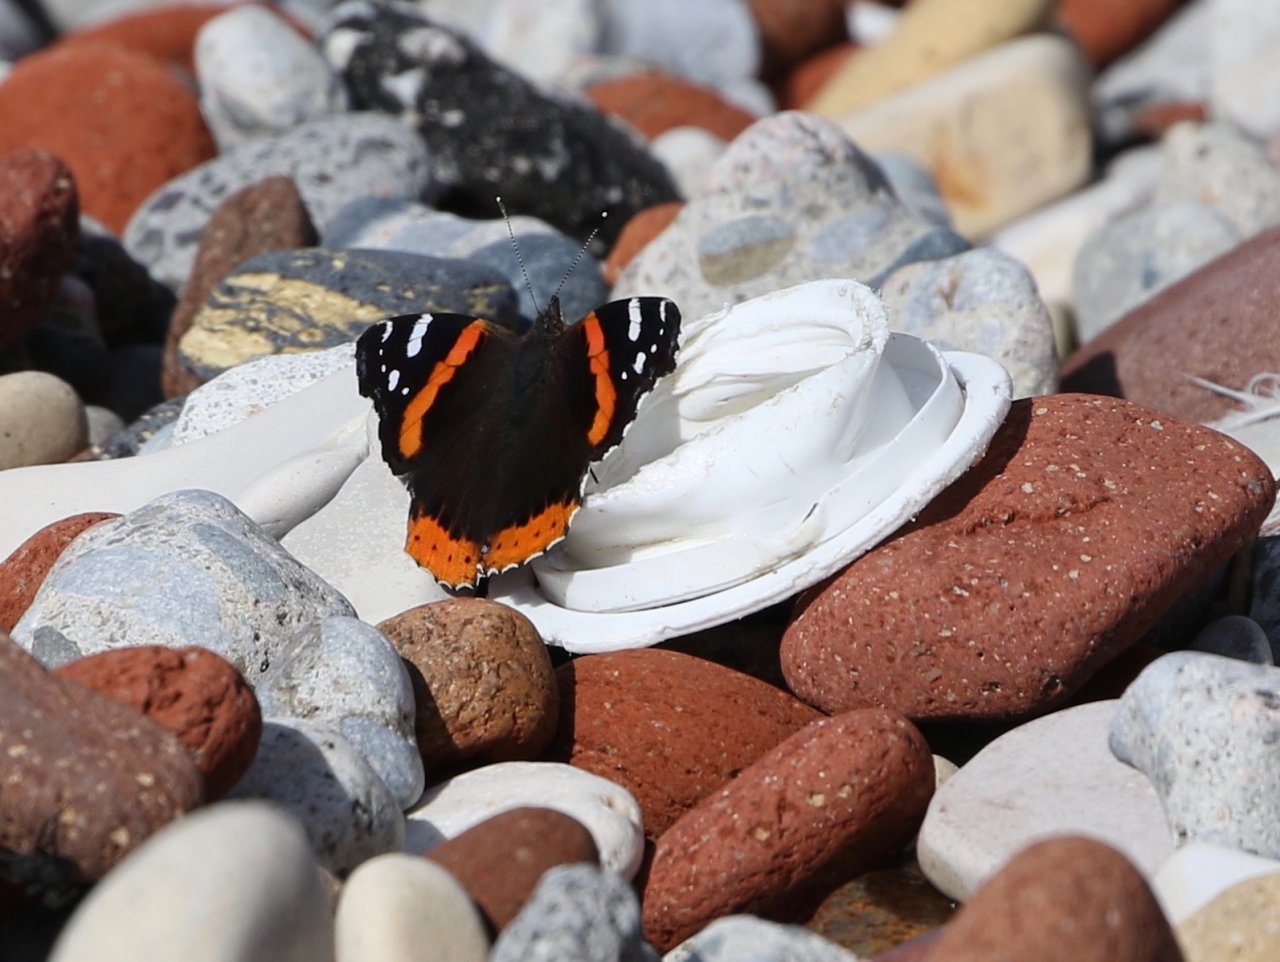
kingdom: Animalia
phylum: Arthropoda
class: Insecta
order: Lepidoptera
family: Nymphalidae
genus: Vanessa
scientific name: Vanessa atalanta
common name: Red Admiral
